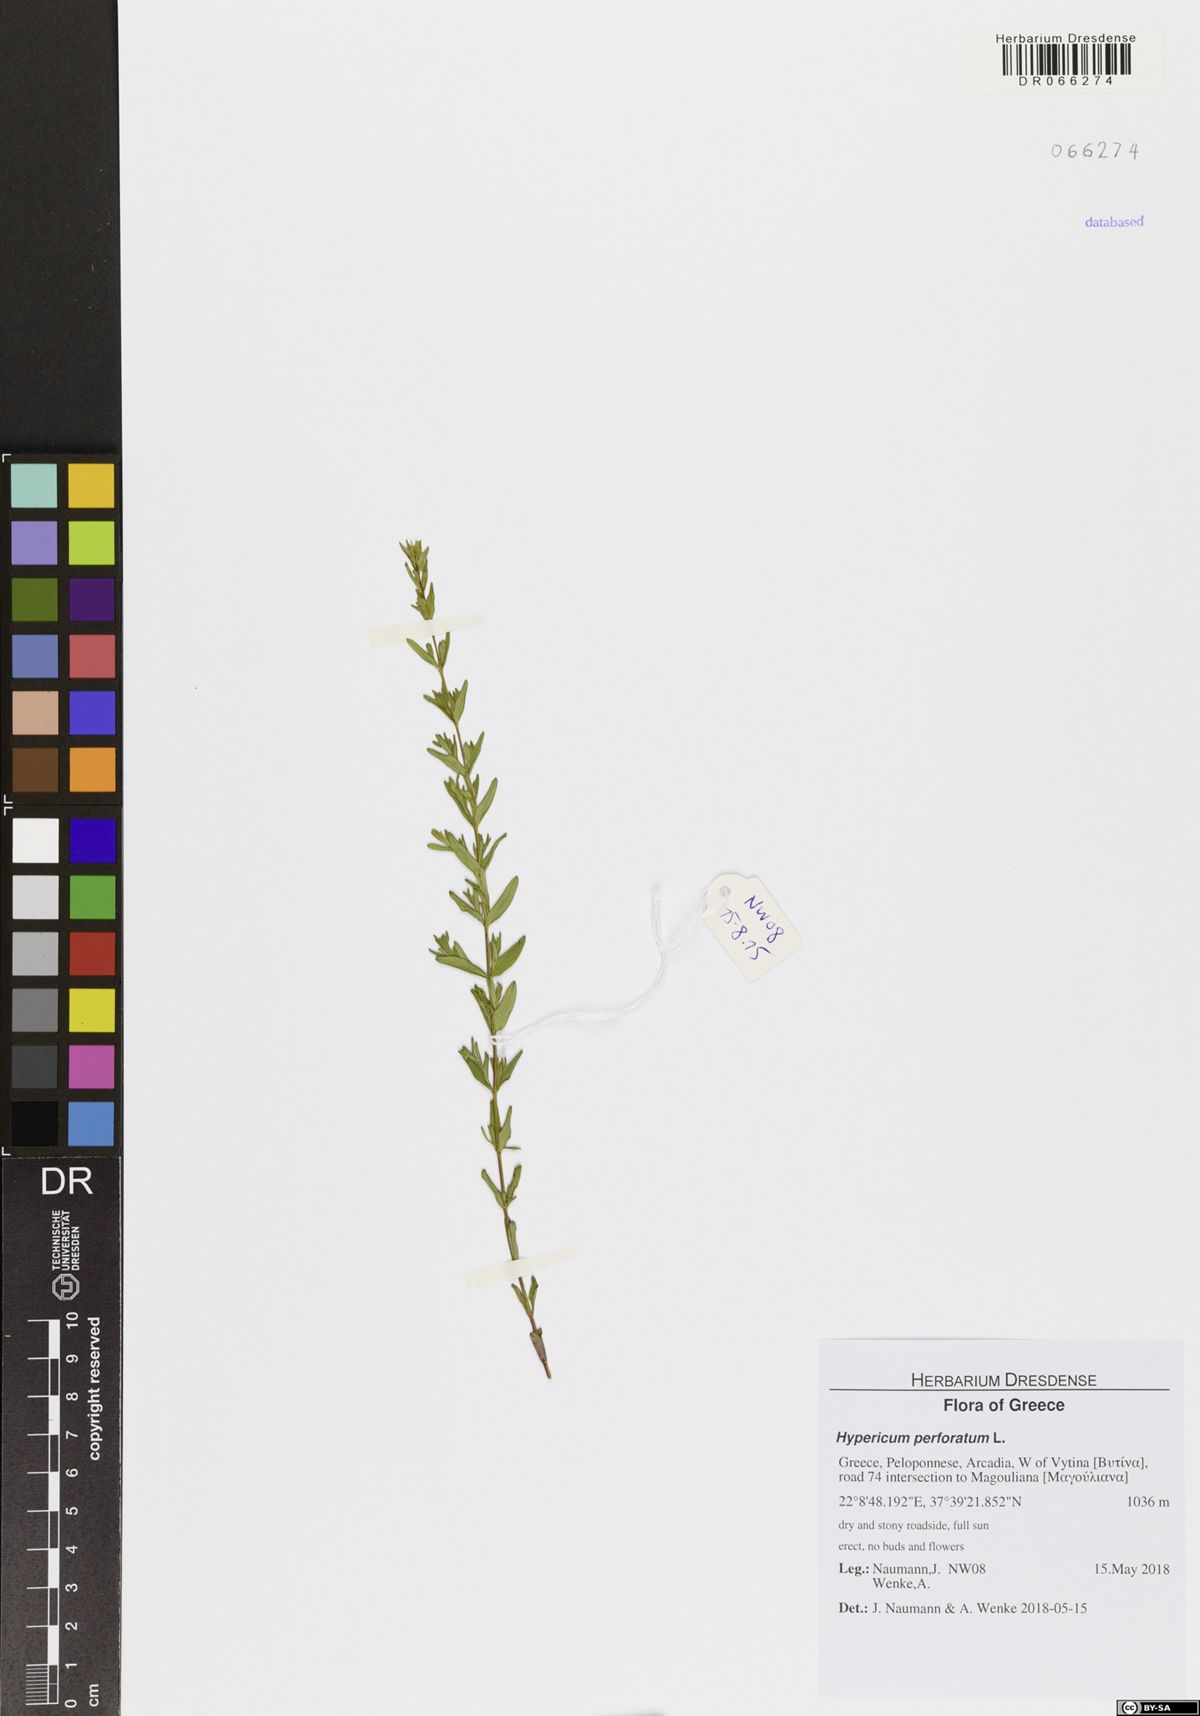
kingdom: Plantae
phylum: Tracheophyta
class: Magnoliopsida
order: Malpighiales
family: Hypericaceae
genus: Hypericum
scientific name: Hypericum perforatum
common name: Common st. johnswort
